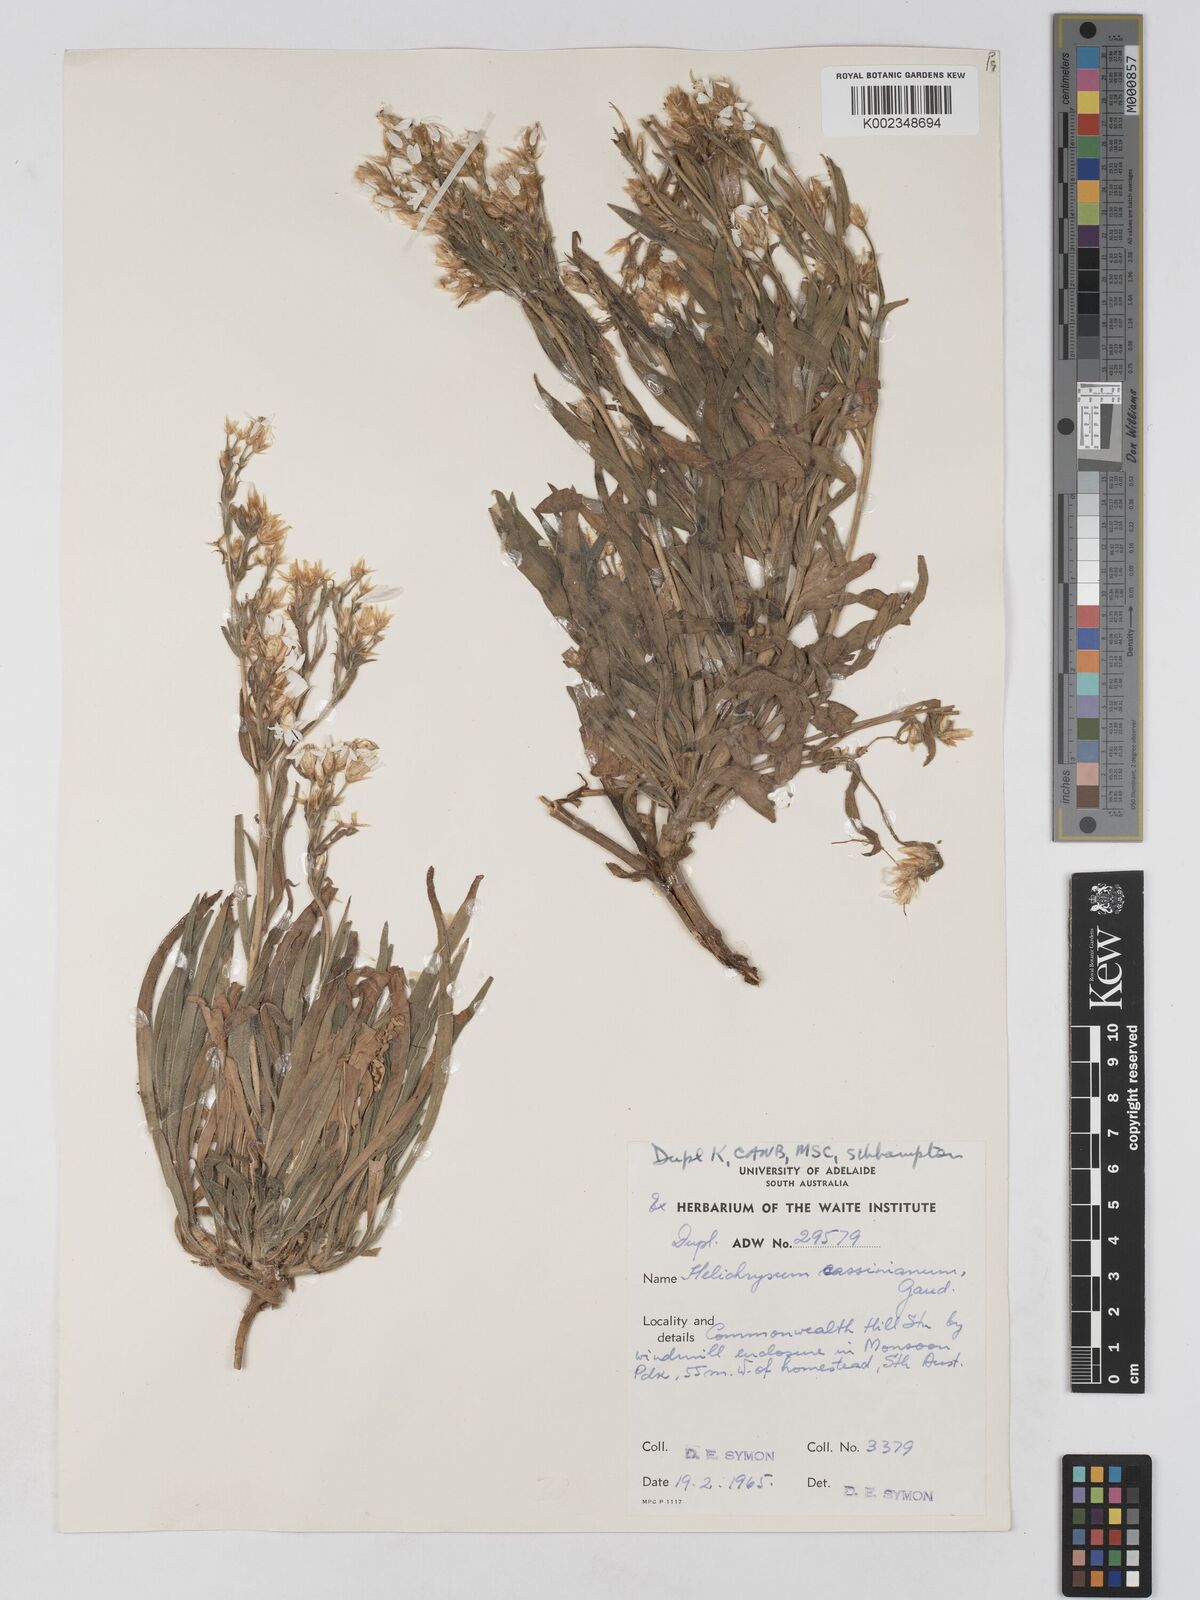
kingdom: Plantae
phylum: Tracheophyta
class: Magnoliopsida
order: Asterales
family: Asteraceae
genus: Schoenia
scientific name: Schoenia cassiniana
